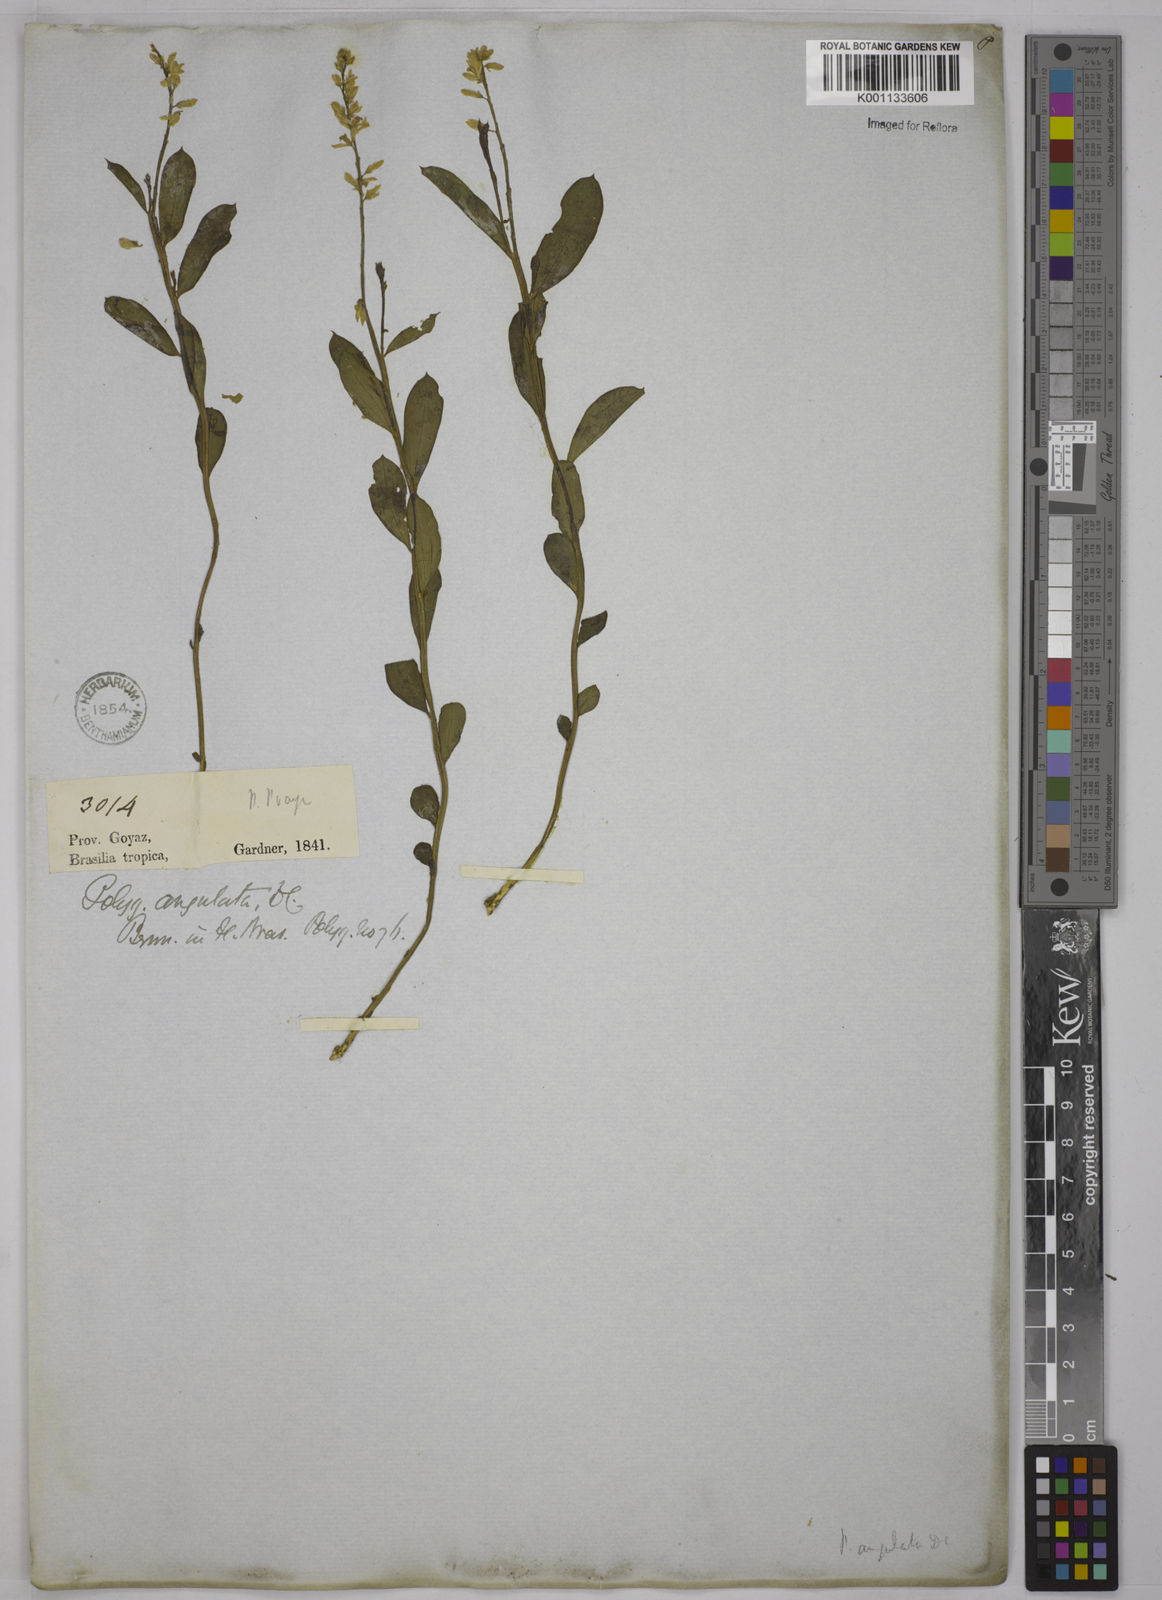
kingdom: Plantae
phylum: Tracheophyta
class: Magnoliopsida
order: Fabales
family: Polygalaceae
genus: Polygala
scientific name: Polygala poaya
